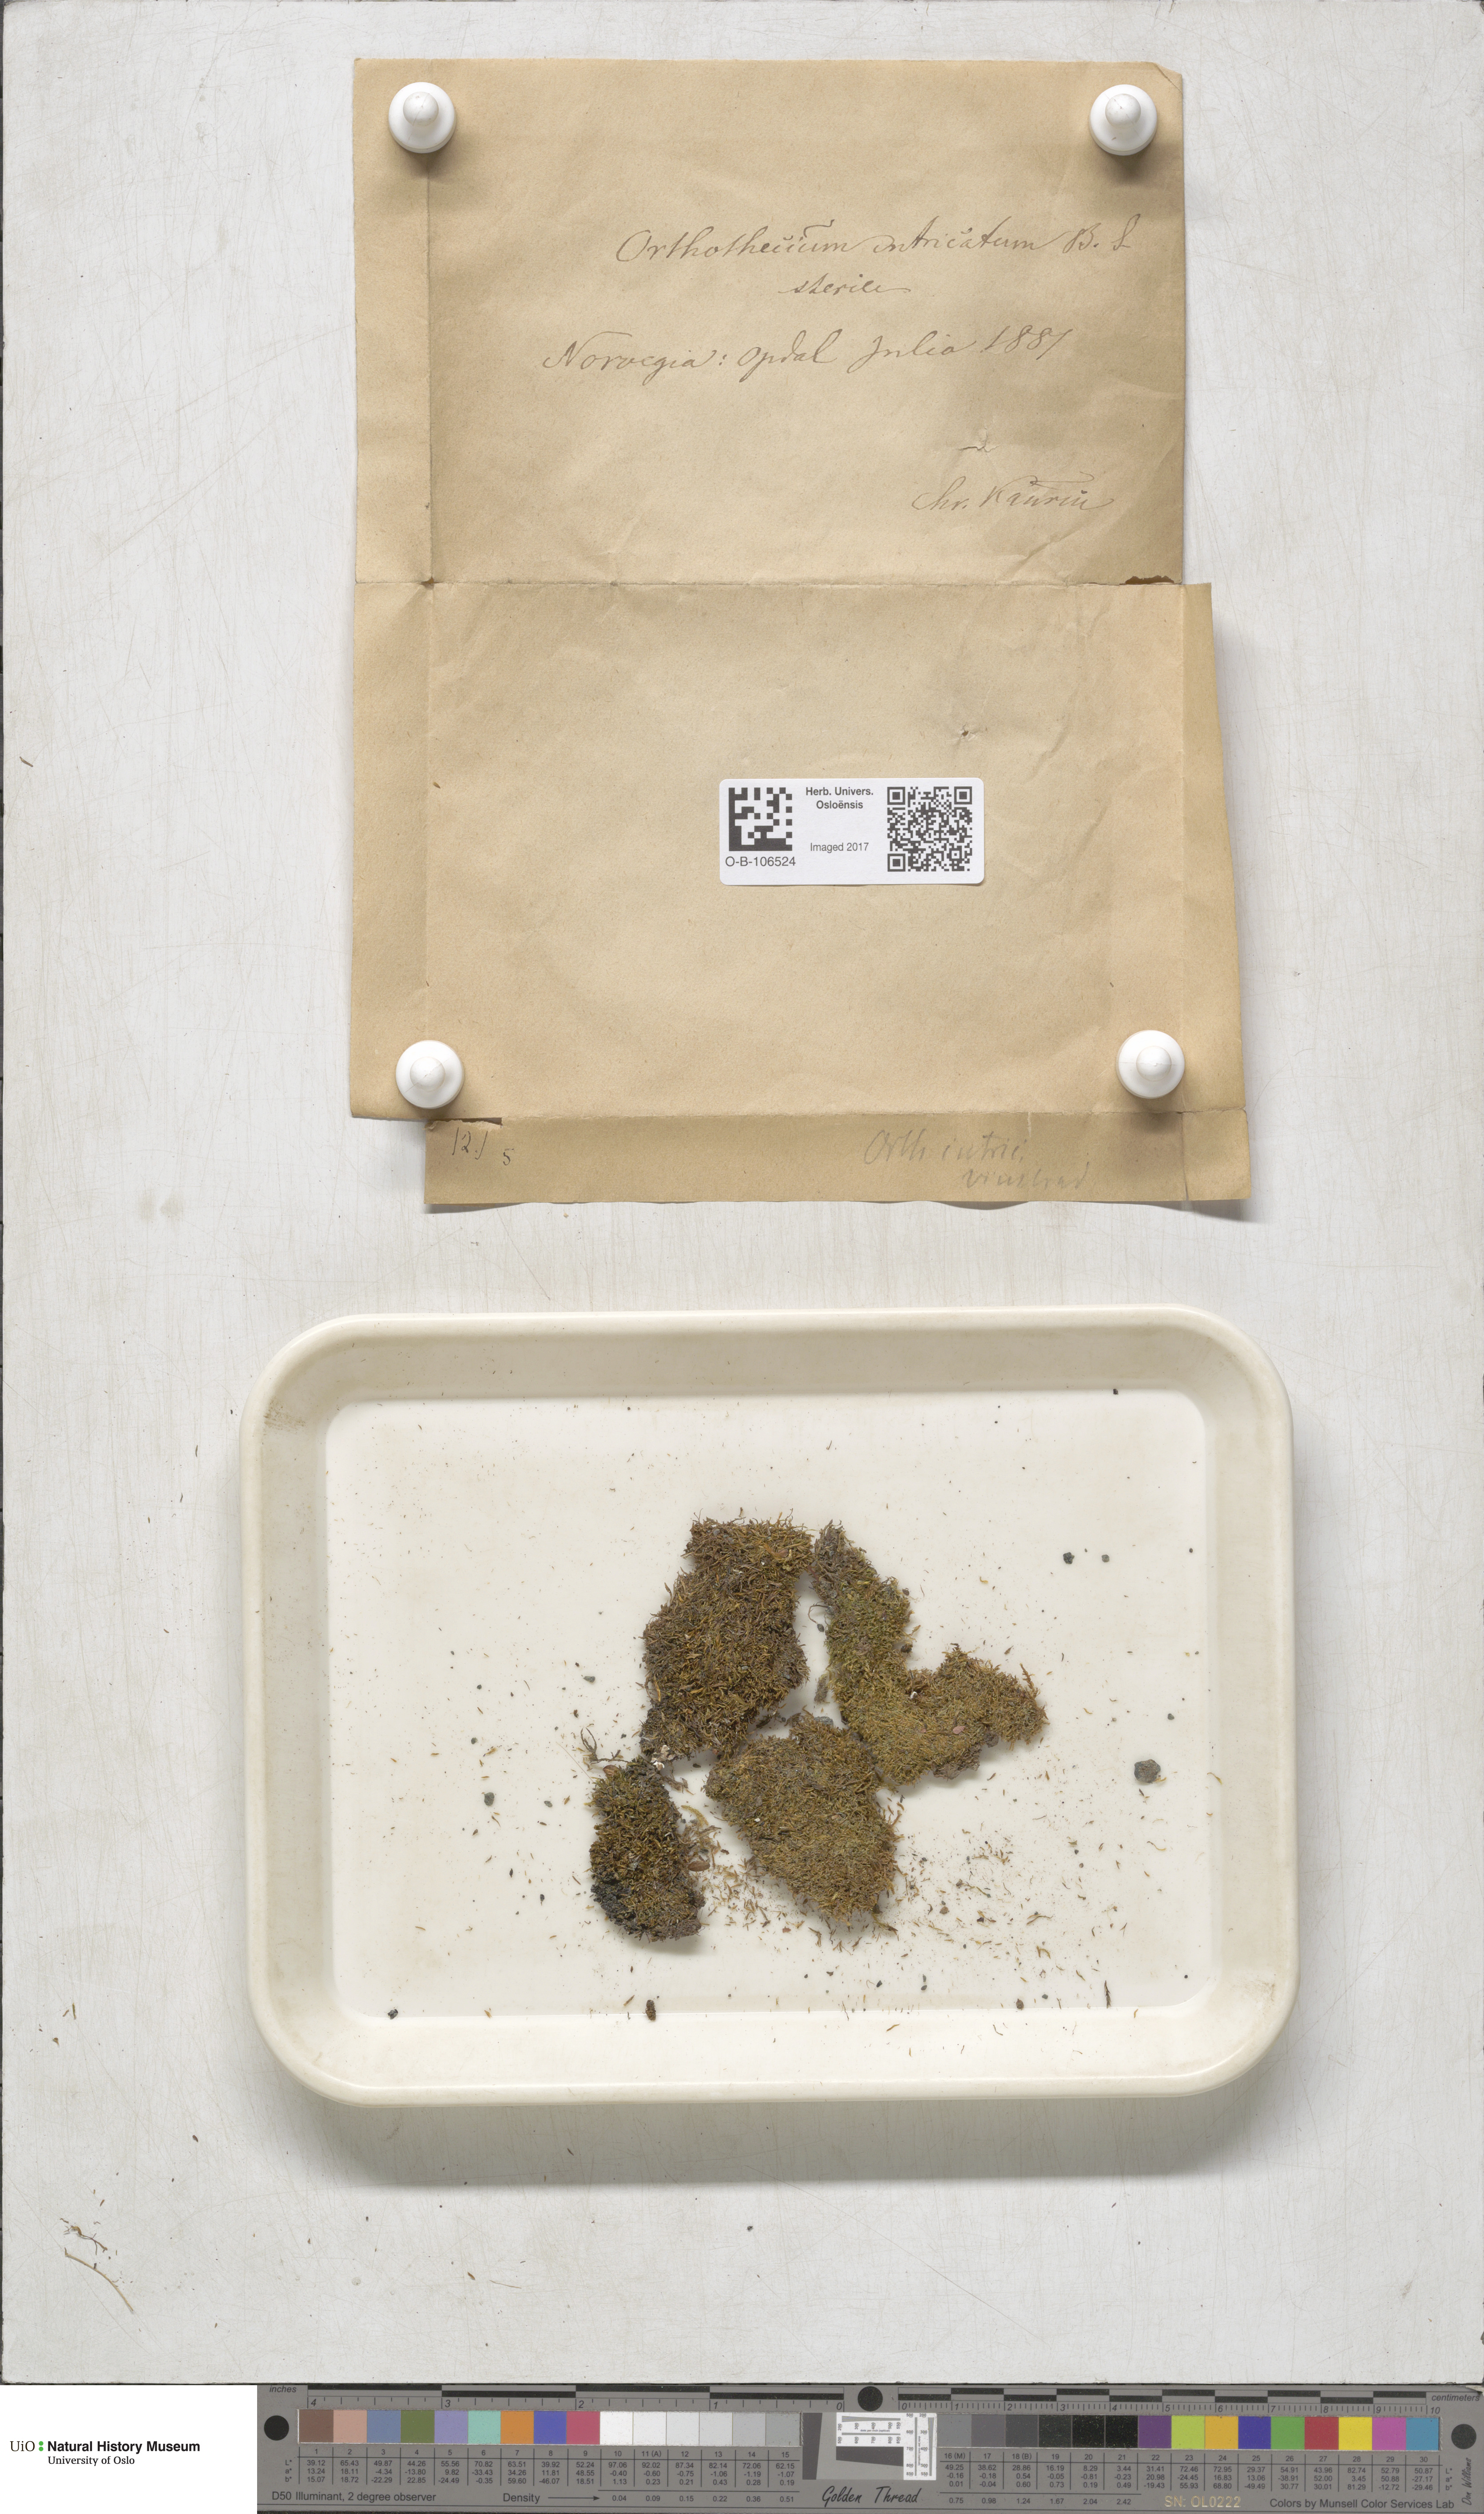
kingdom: Plantae
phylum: Bryophyta
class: Bryopsida
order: Hypnales
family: Plagiotheciaceae
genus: Orthothecium
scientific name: Orthothecium intricatum
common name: Fine-leaved erect-capsule moss
